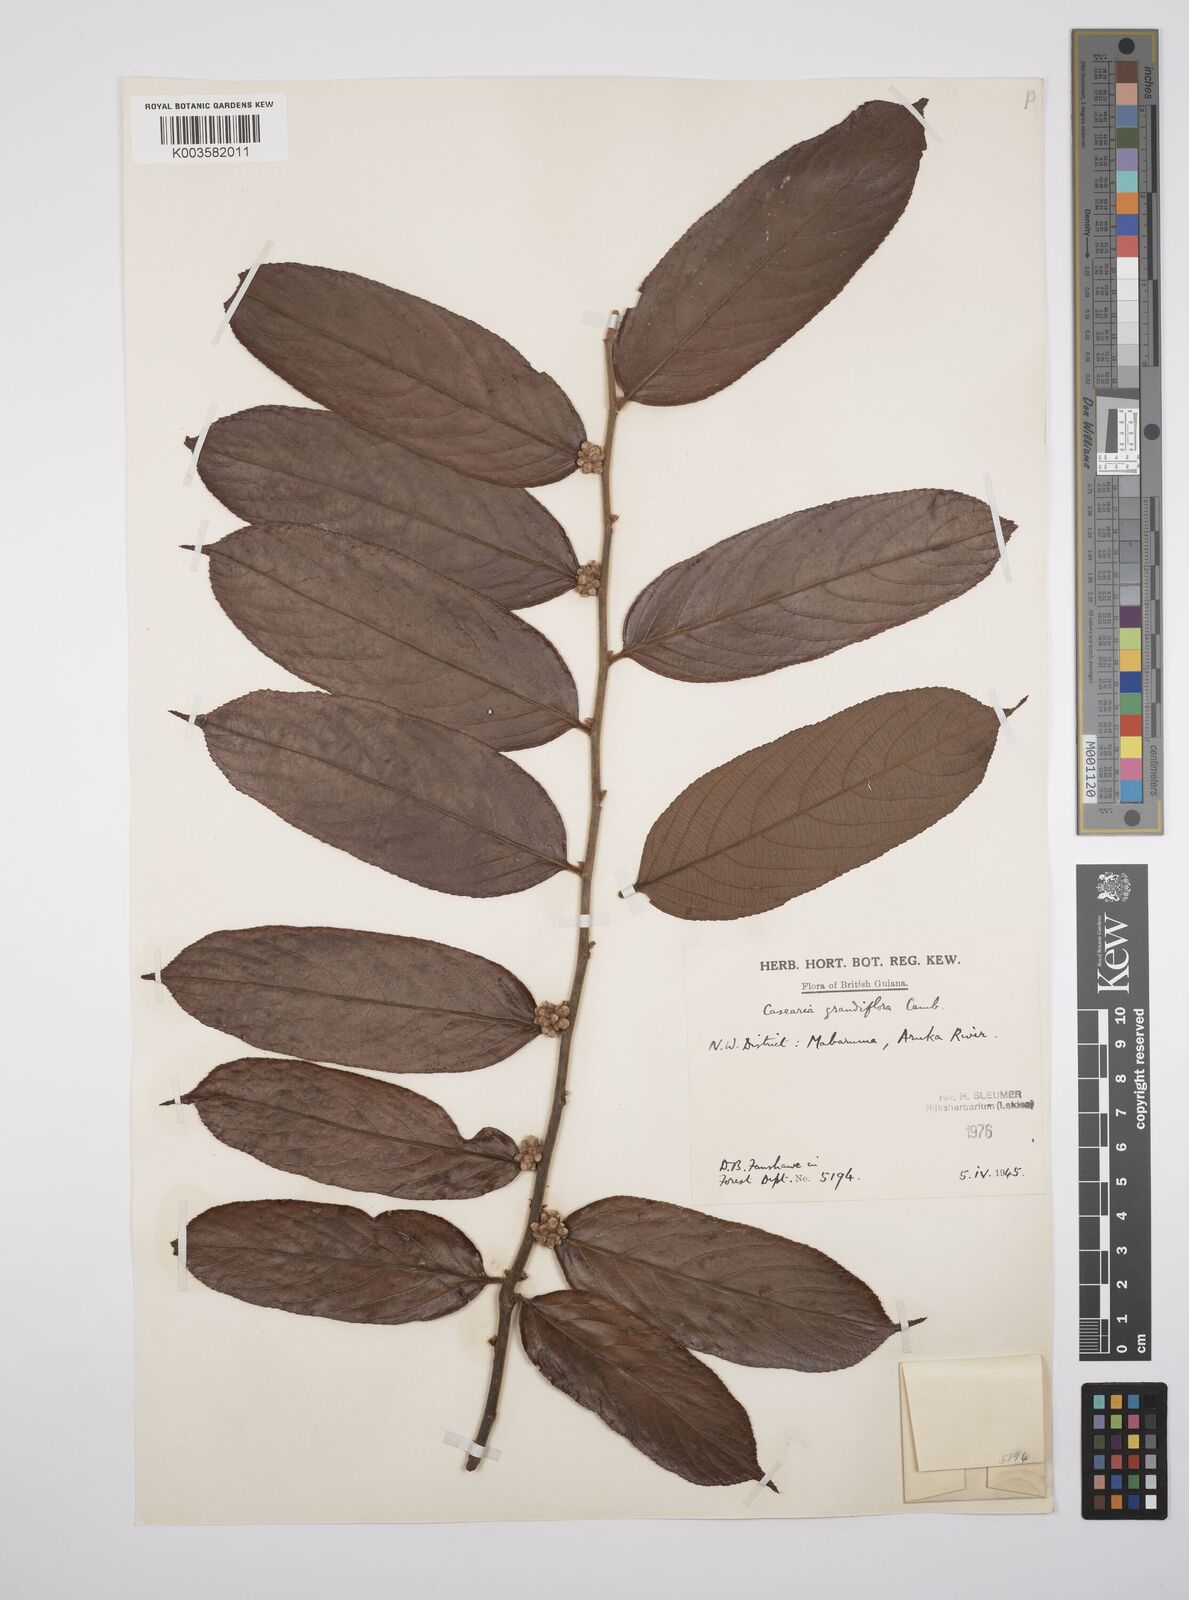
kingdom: Plantae
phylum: Tracheophyta
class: Magnoliopsida
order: Malpighiales
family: Salicaceae
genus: Casearia
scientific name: Casearia grandiflora
